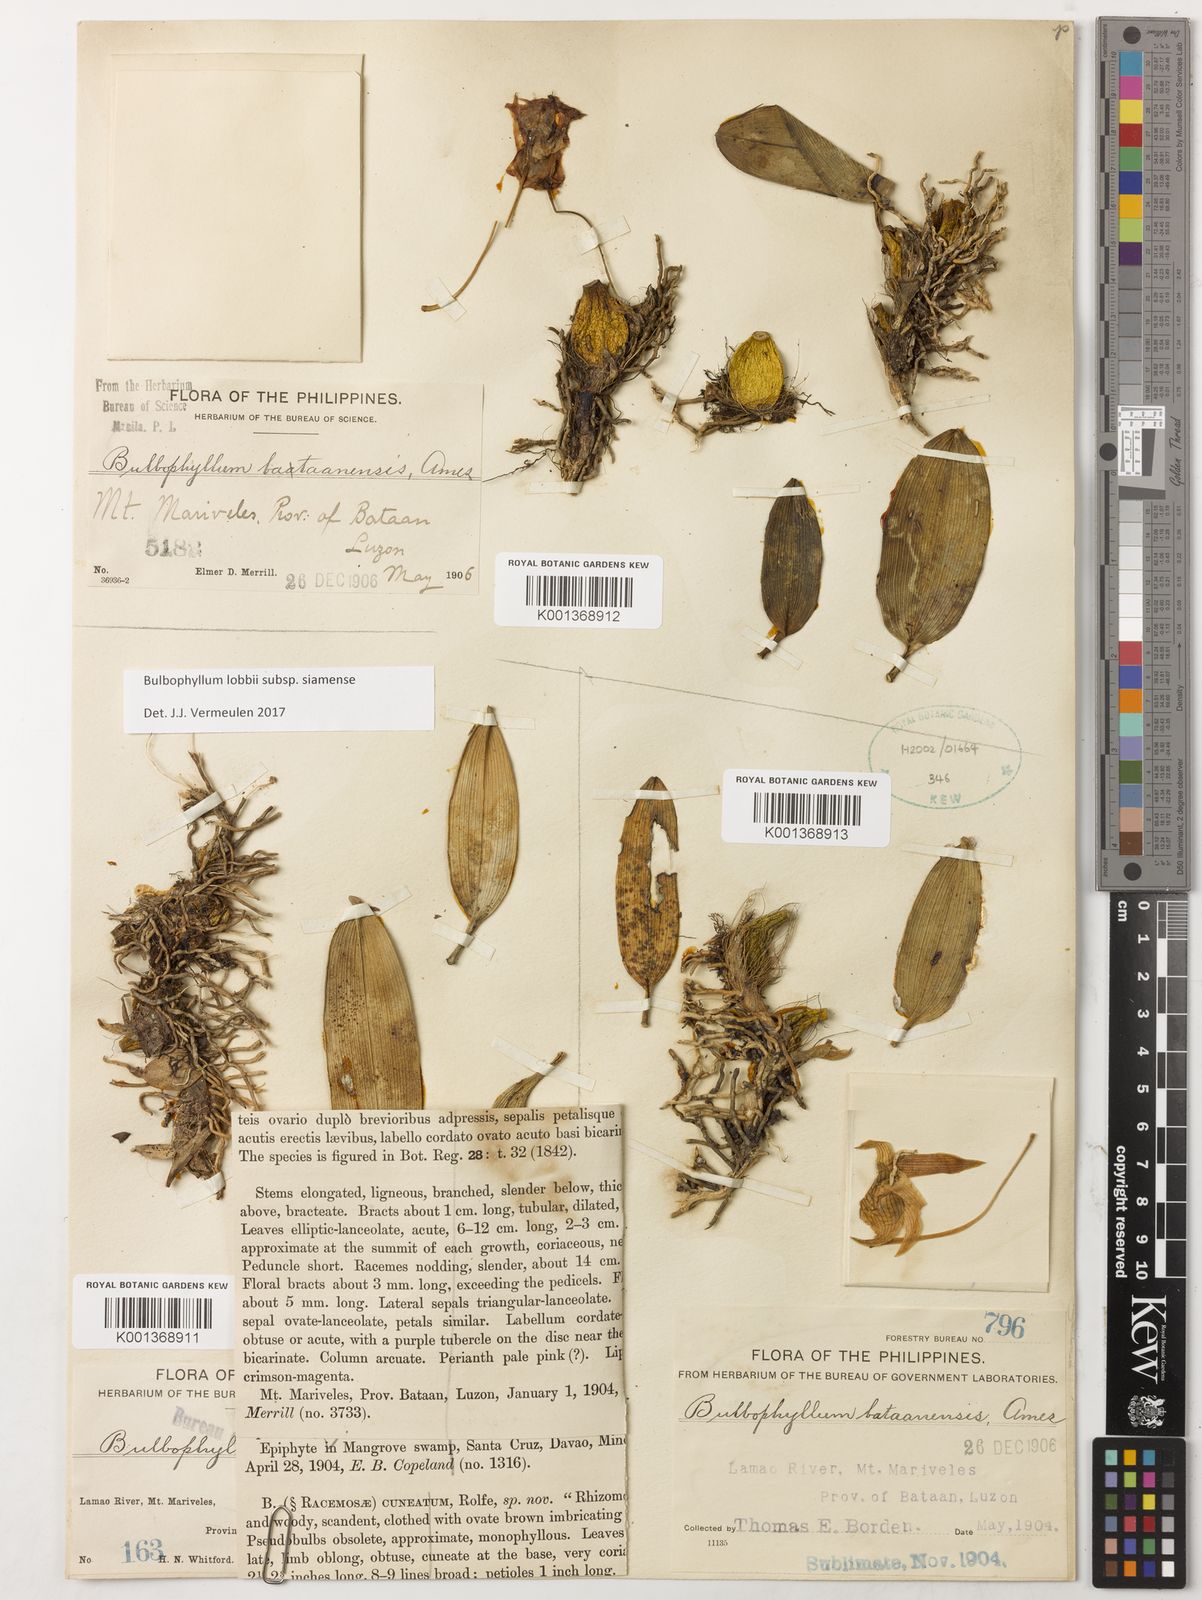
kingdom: Plantae
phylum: Tracheophyta
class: Liliopsida
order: Asparagales
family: Orchidaceae
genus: Bulbophyllum
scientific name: Bulbophyllum lobbii
